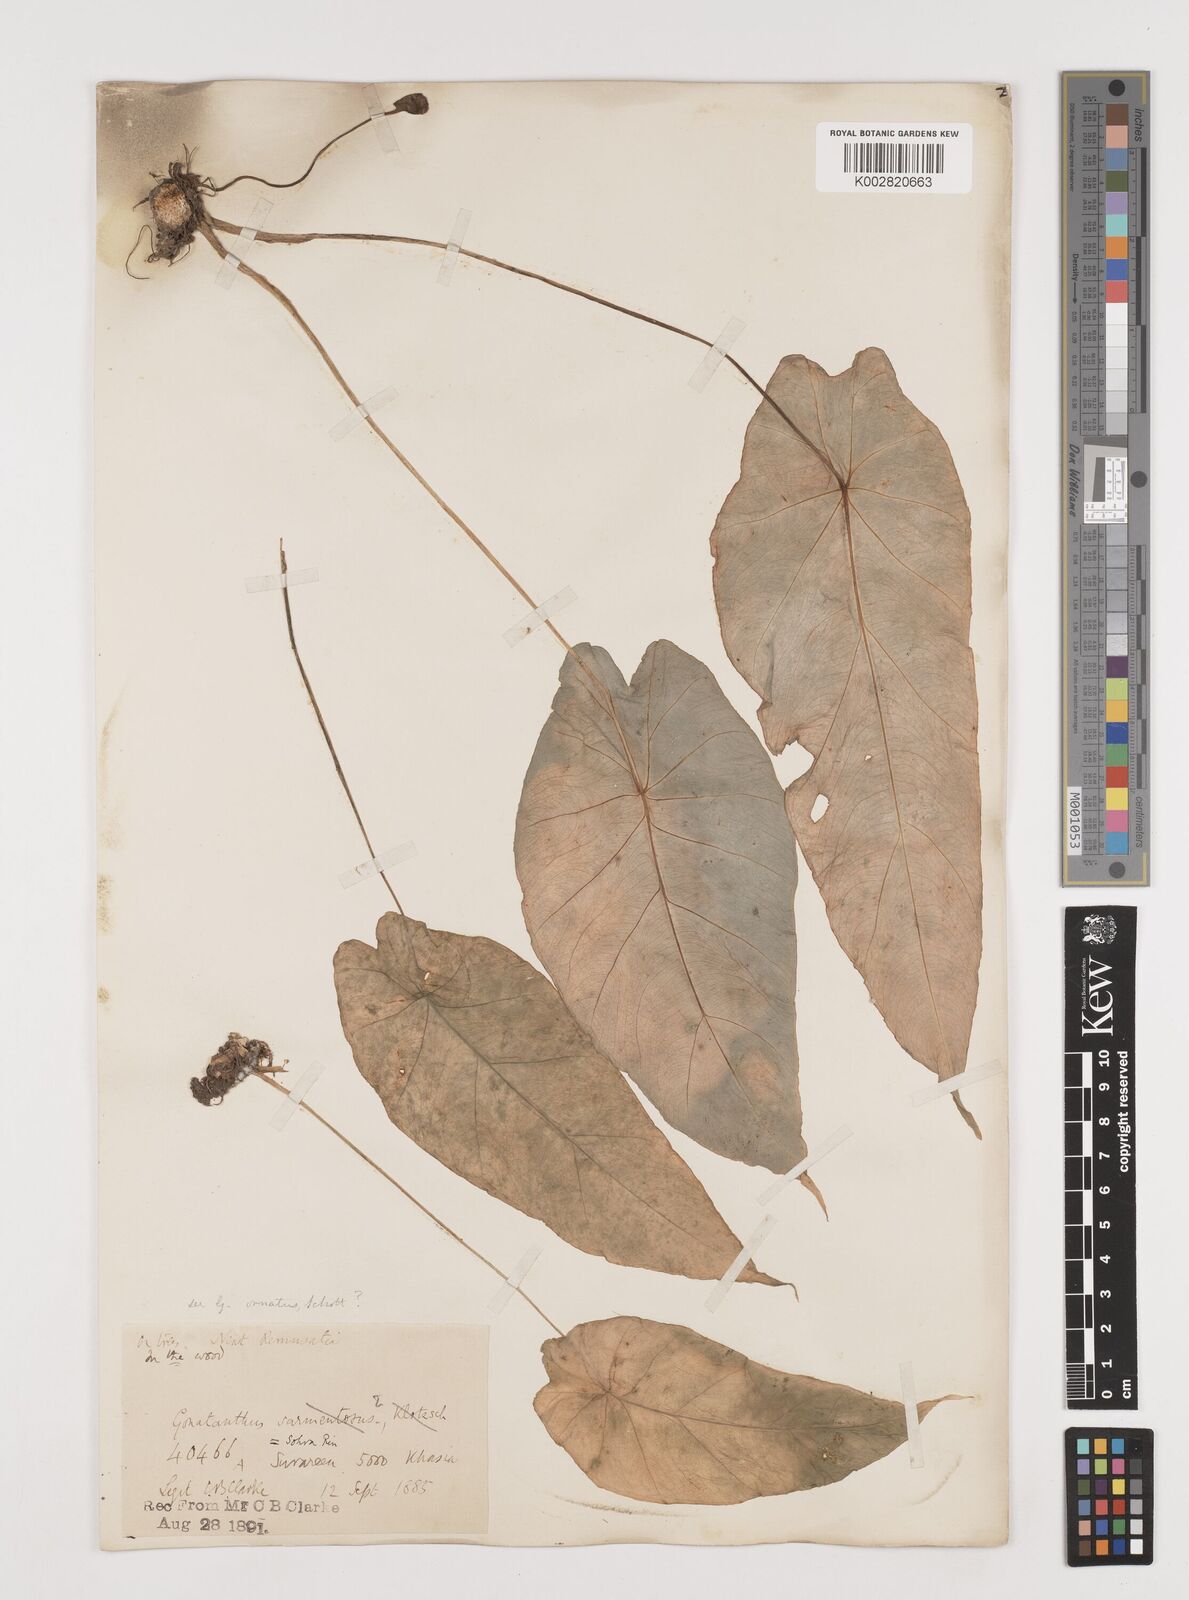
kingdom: Plantae
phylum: Tracheophyta
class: Liliopsida
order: Alismatales
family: Araceae
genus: Remusatia
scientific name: Remusatia hookeriana
